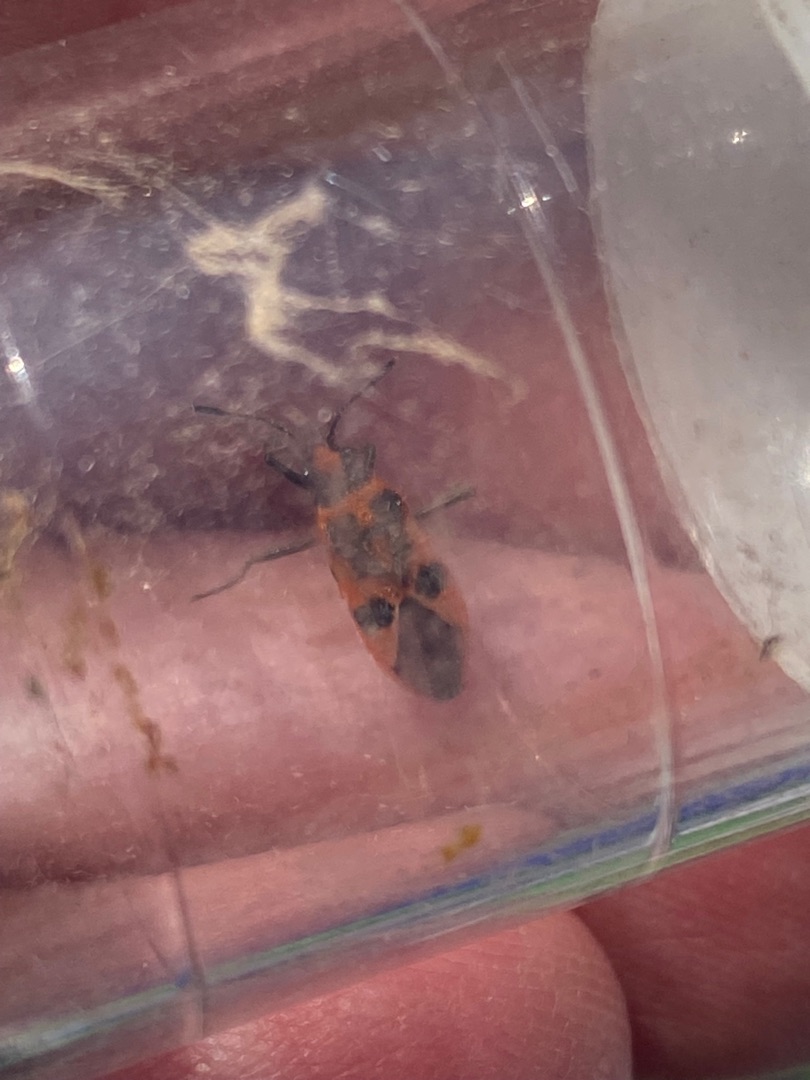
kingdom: Animalia
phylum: Arthropoda
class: Insecta
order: Hemiptera
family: Rhopalidae
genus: Corizus
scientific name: Corizus hyoscyami
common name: Rød kanttæge
